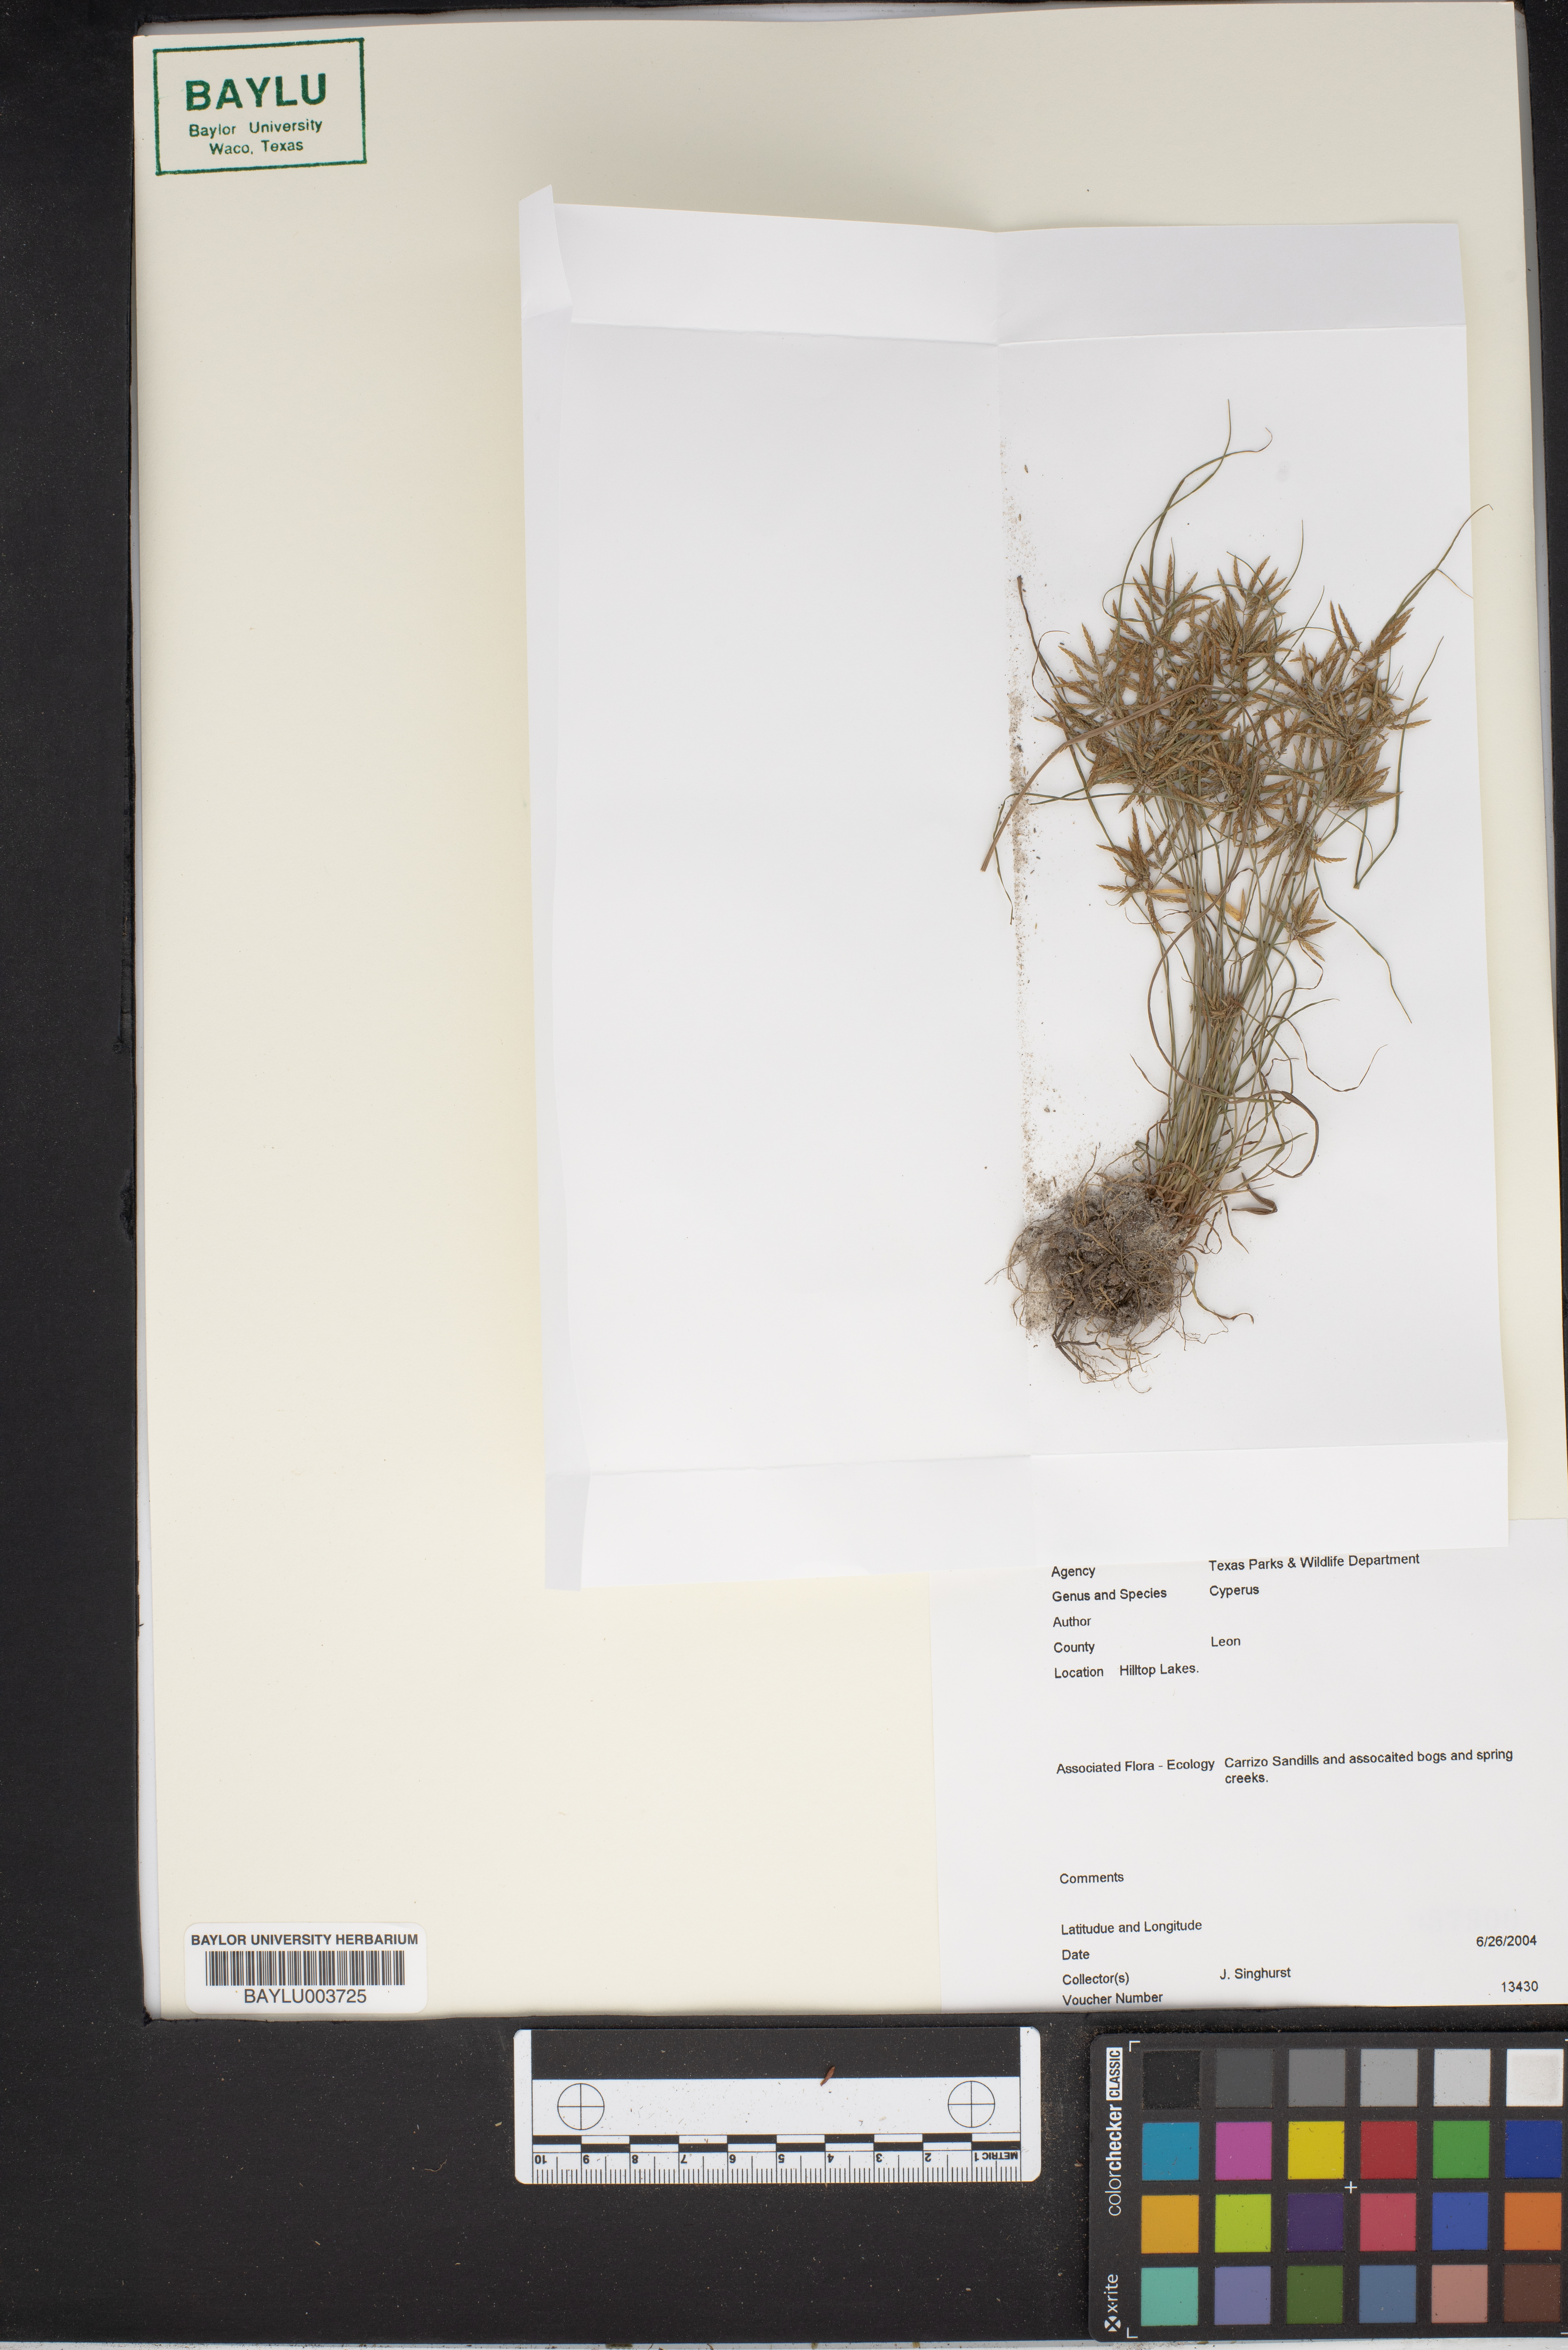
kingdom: Plantae
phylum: Tracheophyta
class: Liliopsida
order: Poales
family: Cyperaceae
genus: Cyperus
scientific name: Cyperus
